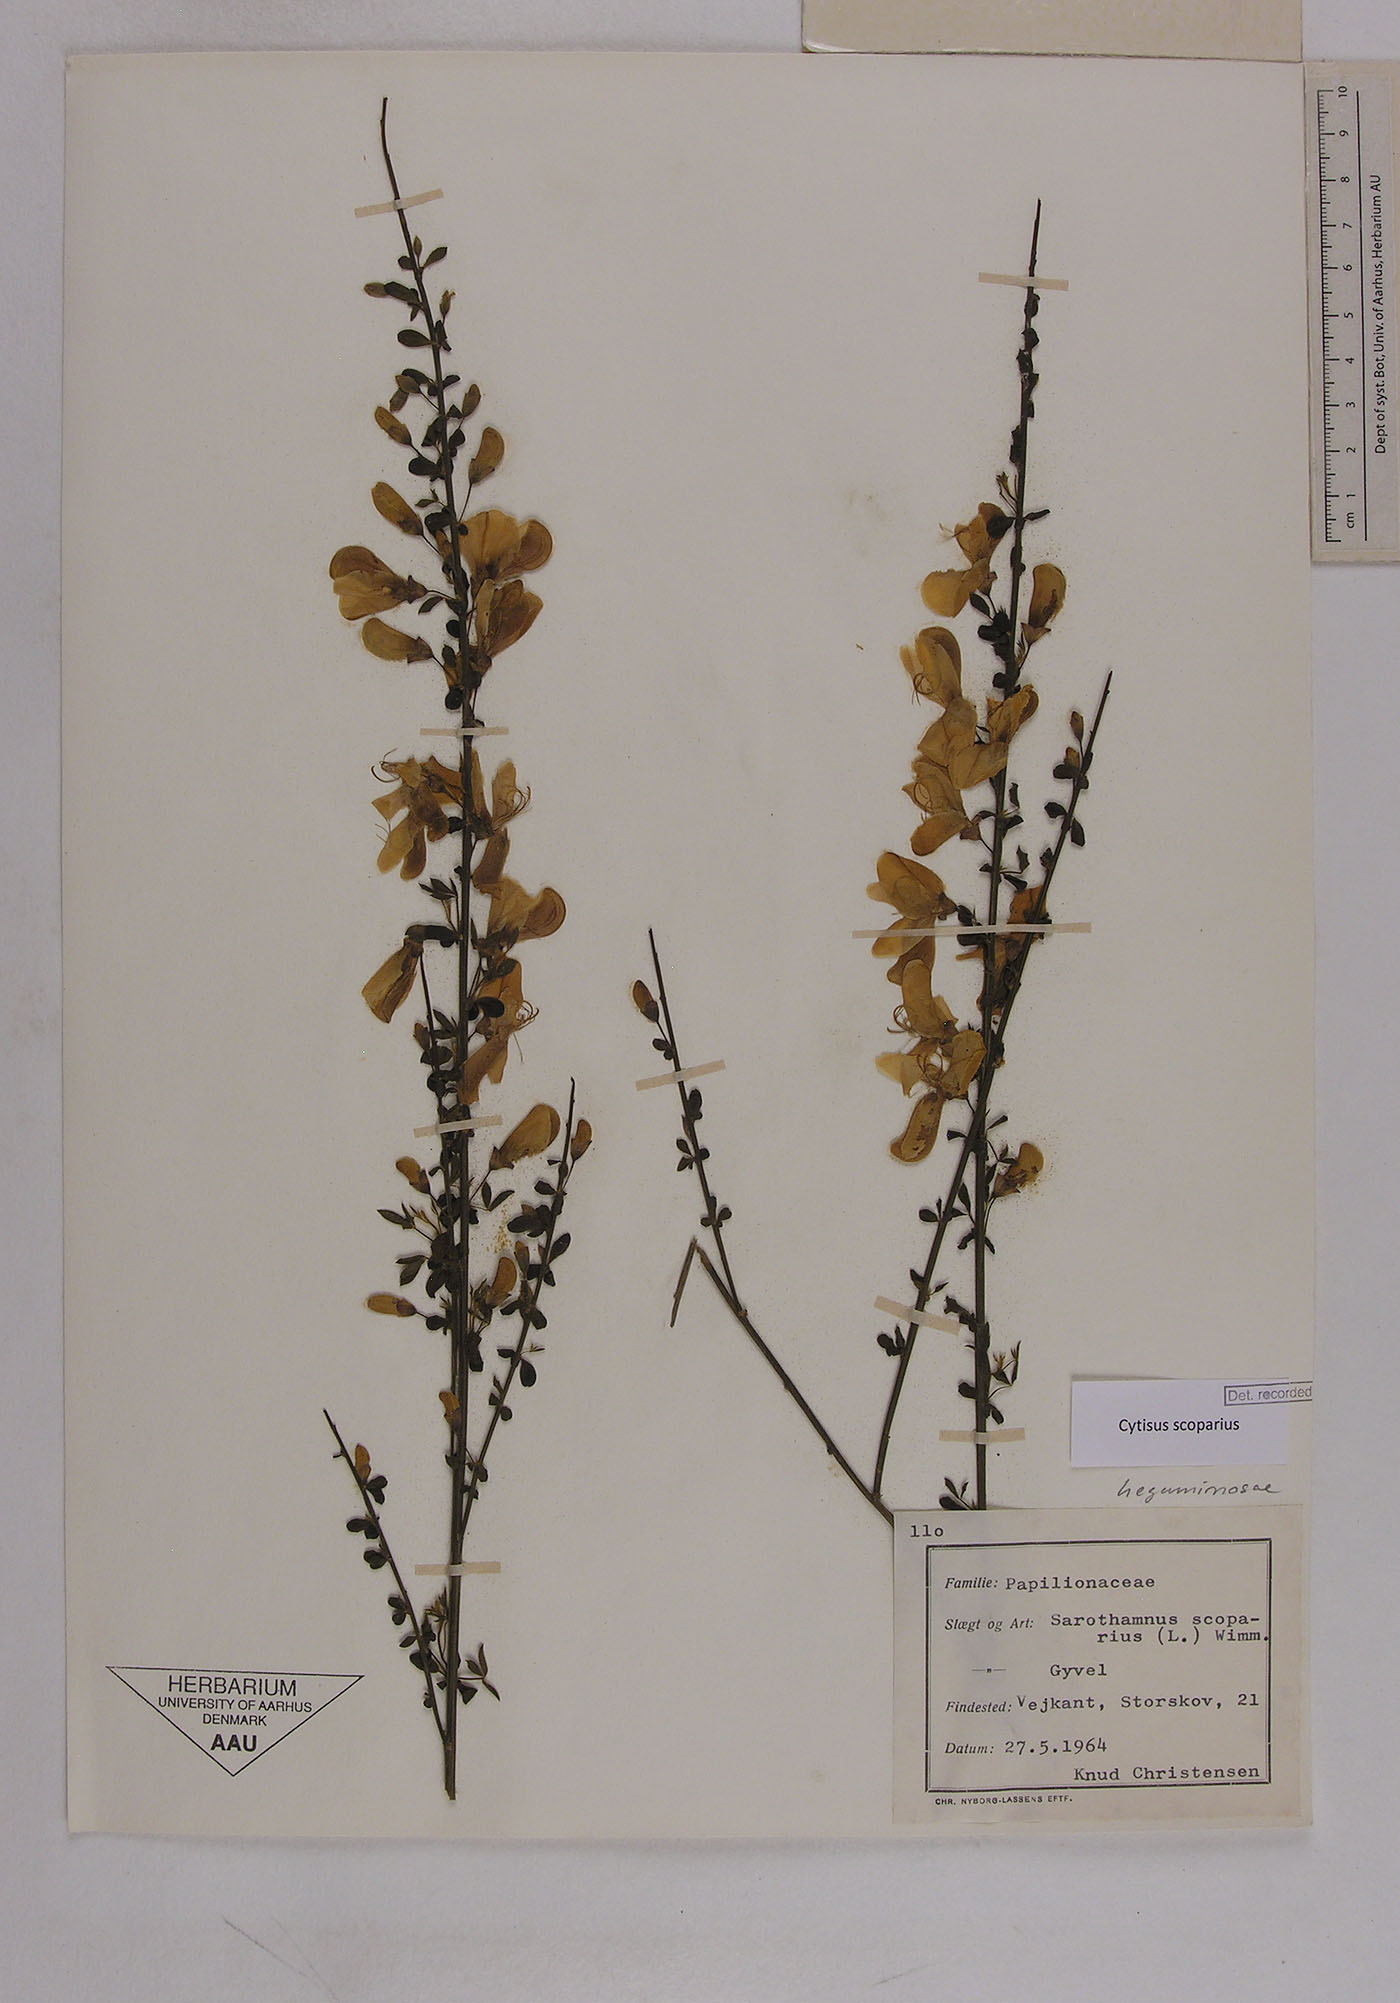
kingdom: Plantae
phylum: Tracheophyta
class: Magnoliopsida
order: Fabales
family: Fabaceae
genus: Cytisus
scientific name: Cytisus scoparius
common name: Scotch broom
